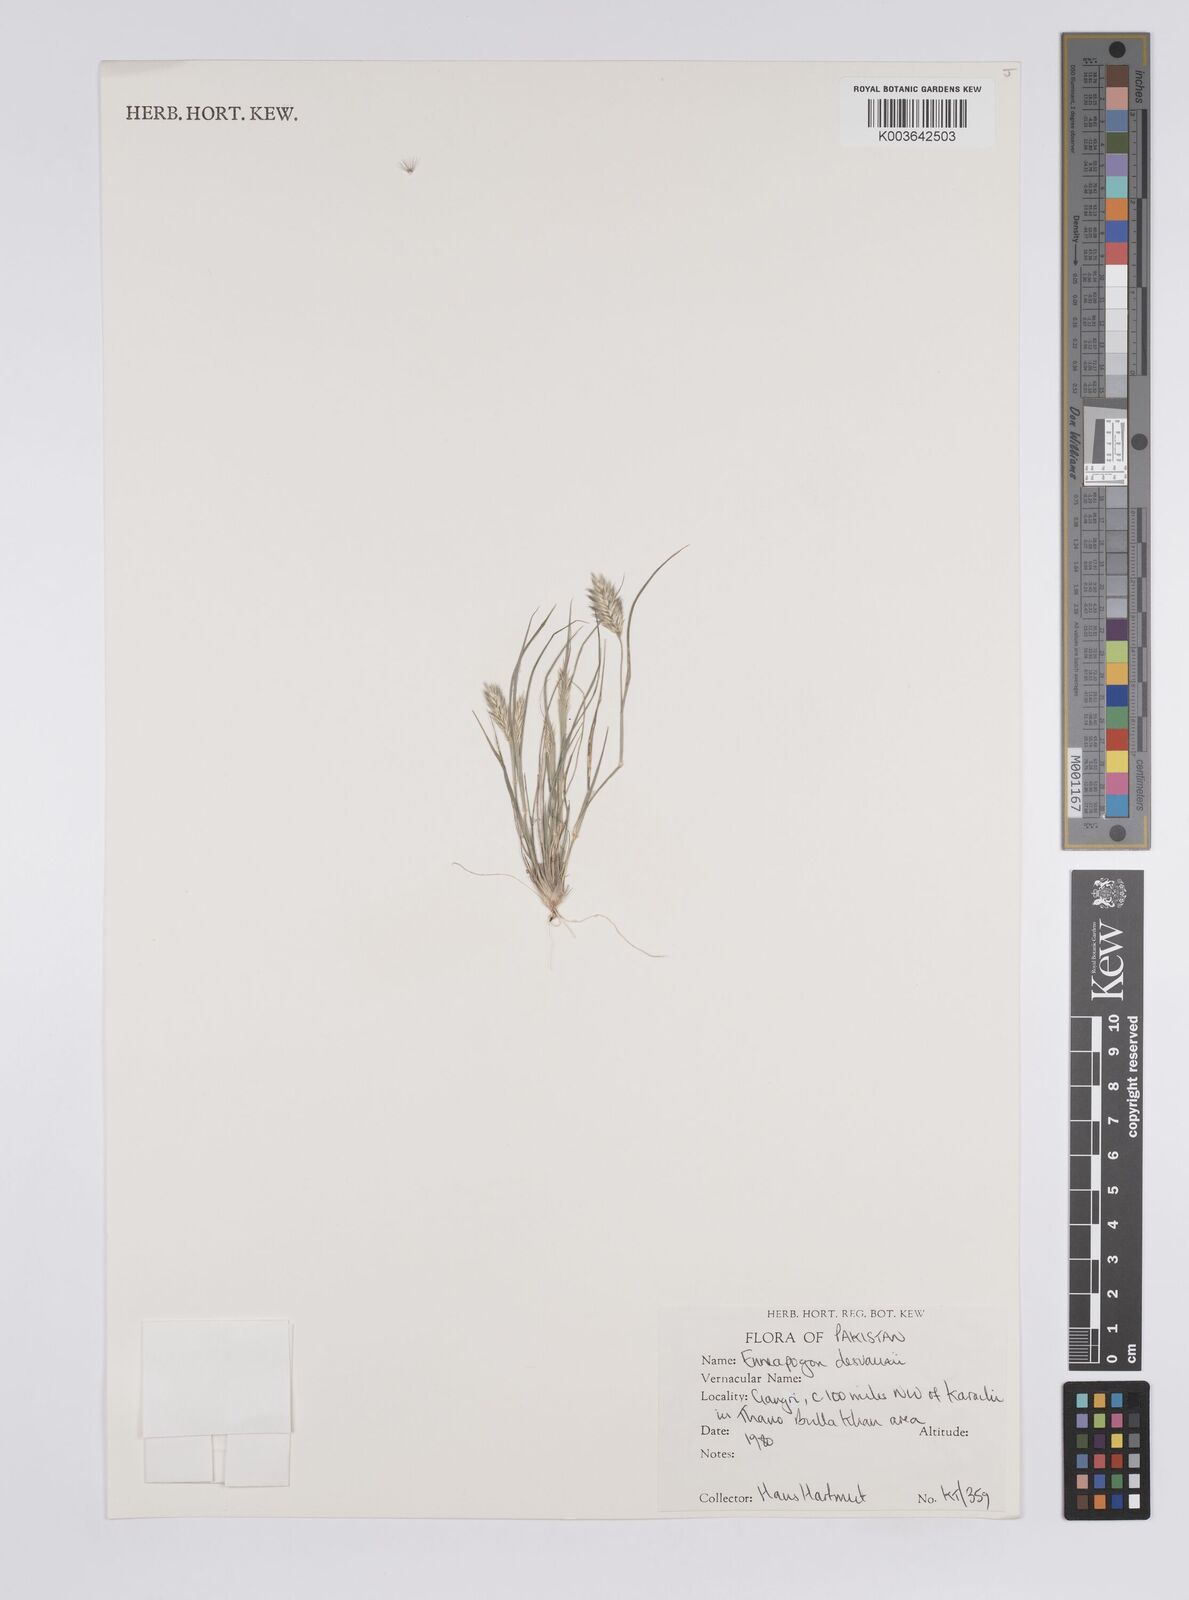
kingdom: Plantae
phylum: Tracheophyta
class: Liliopsida
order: Poales
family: Poaceae
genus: Enneapogon
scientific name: Enneapogon desvauxii
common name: Feather pappus grass
